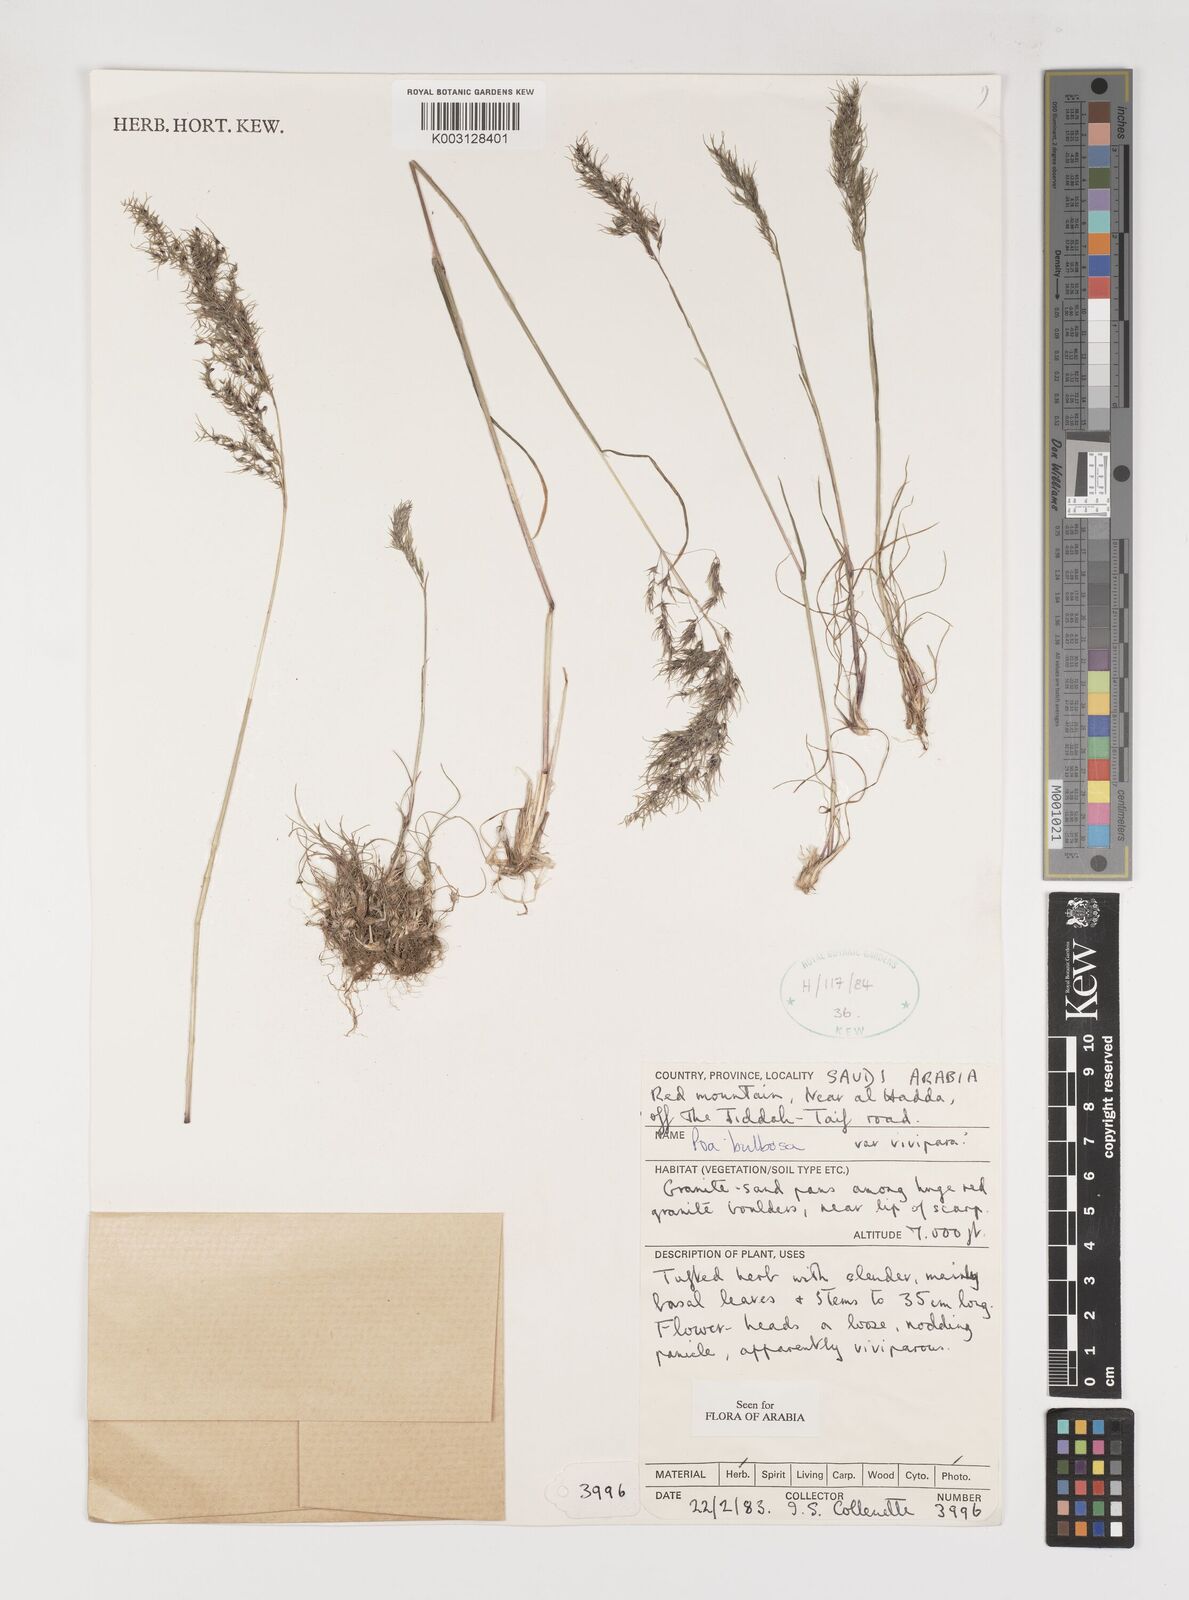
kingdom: Plantae
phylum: Tracheophyta
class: Liliopsida
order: Poales
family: Poaceae
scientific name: Poaceae
